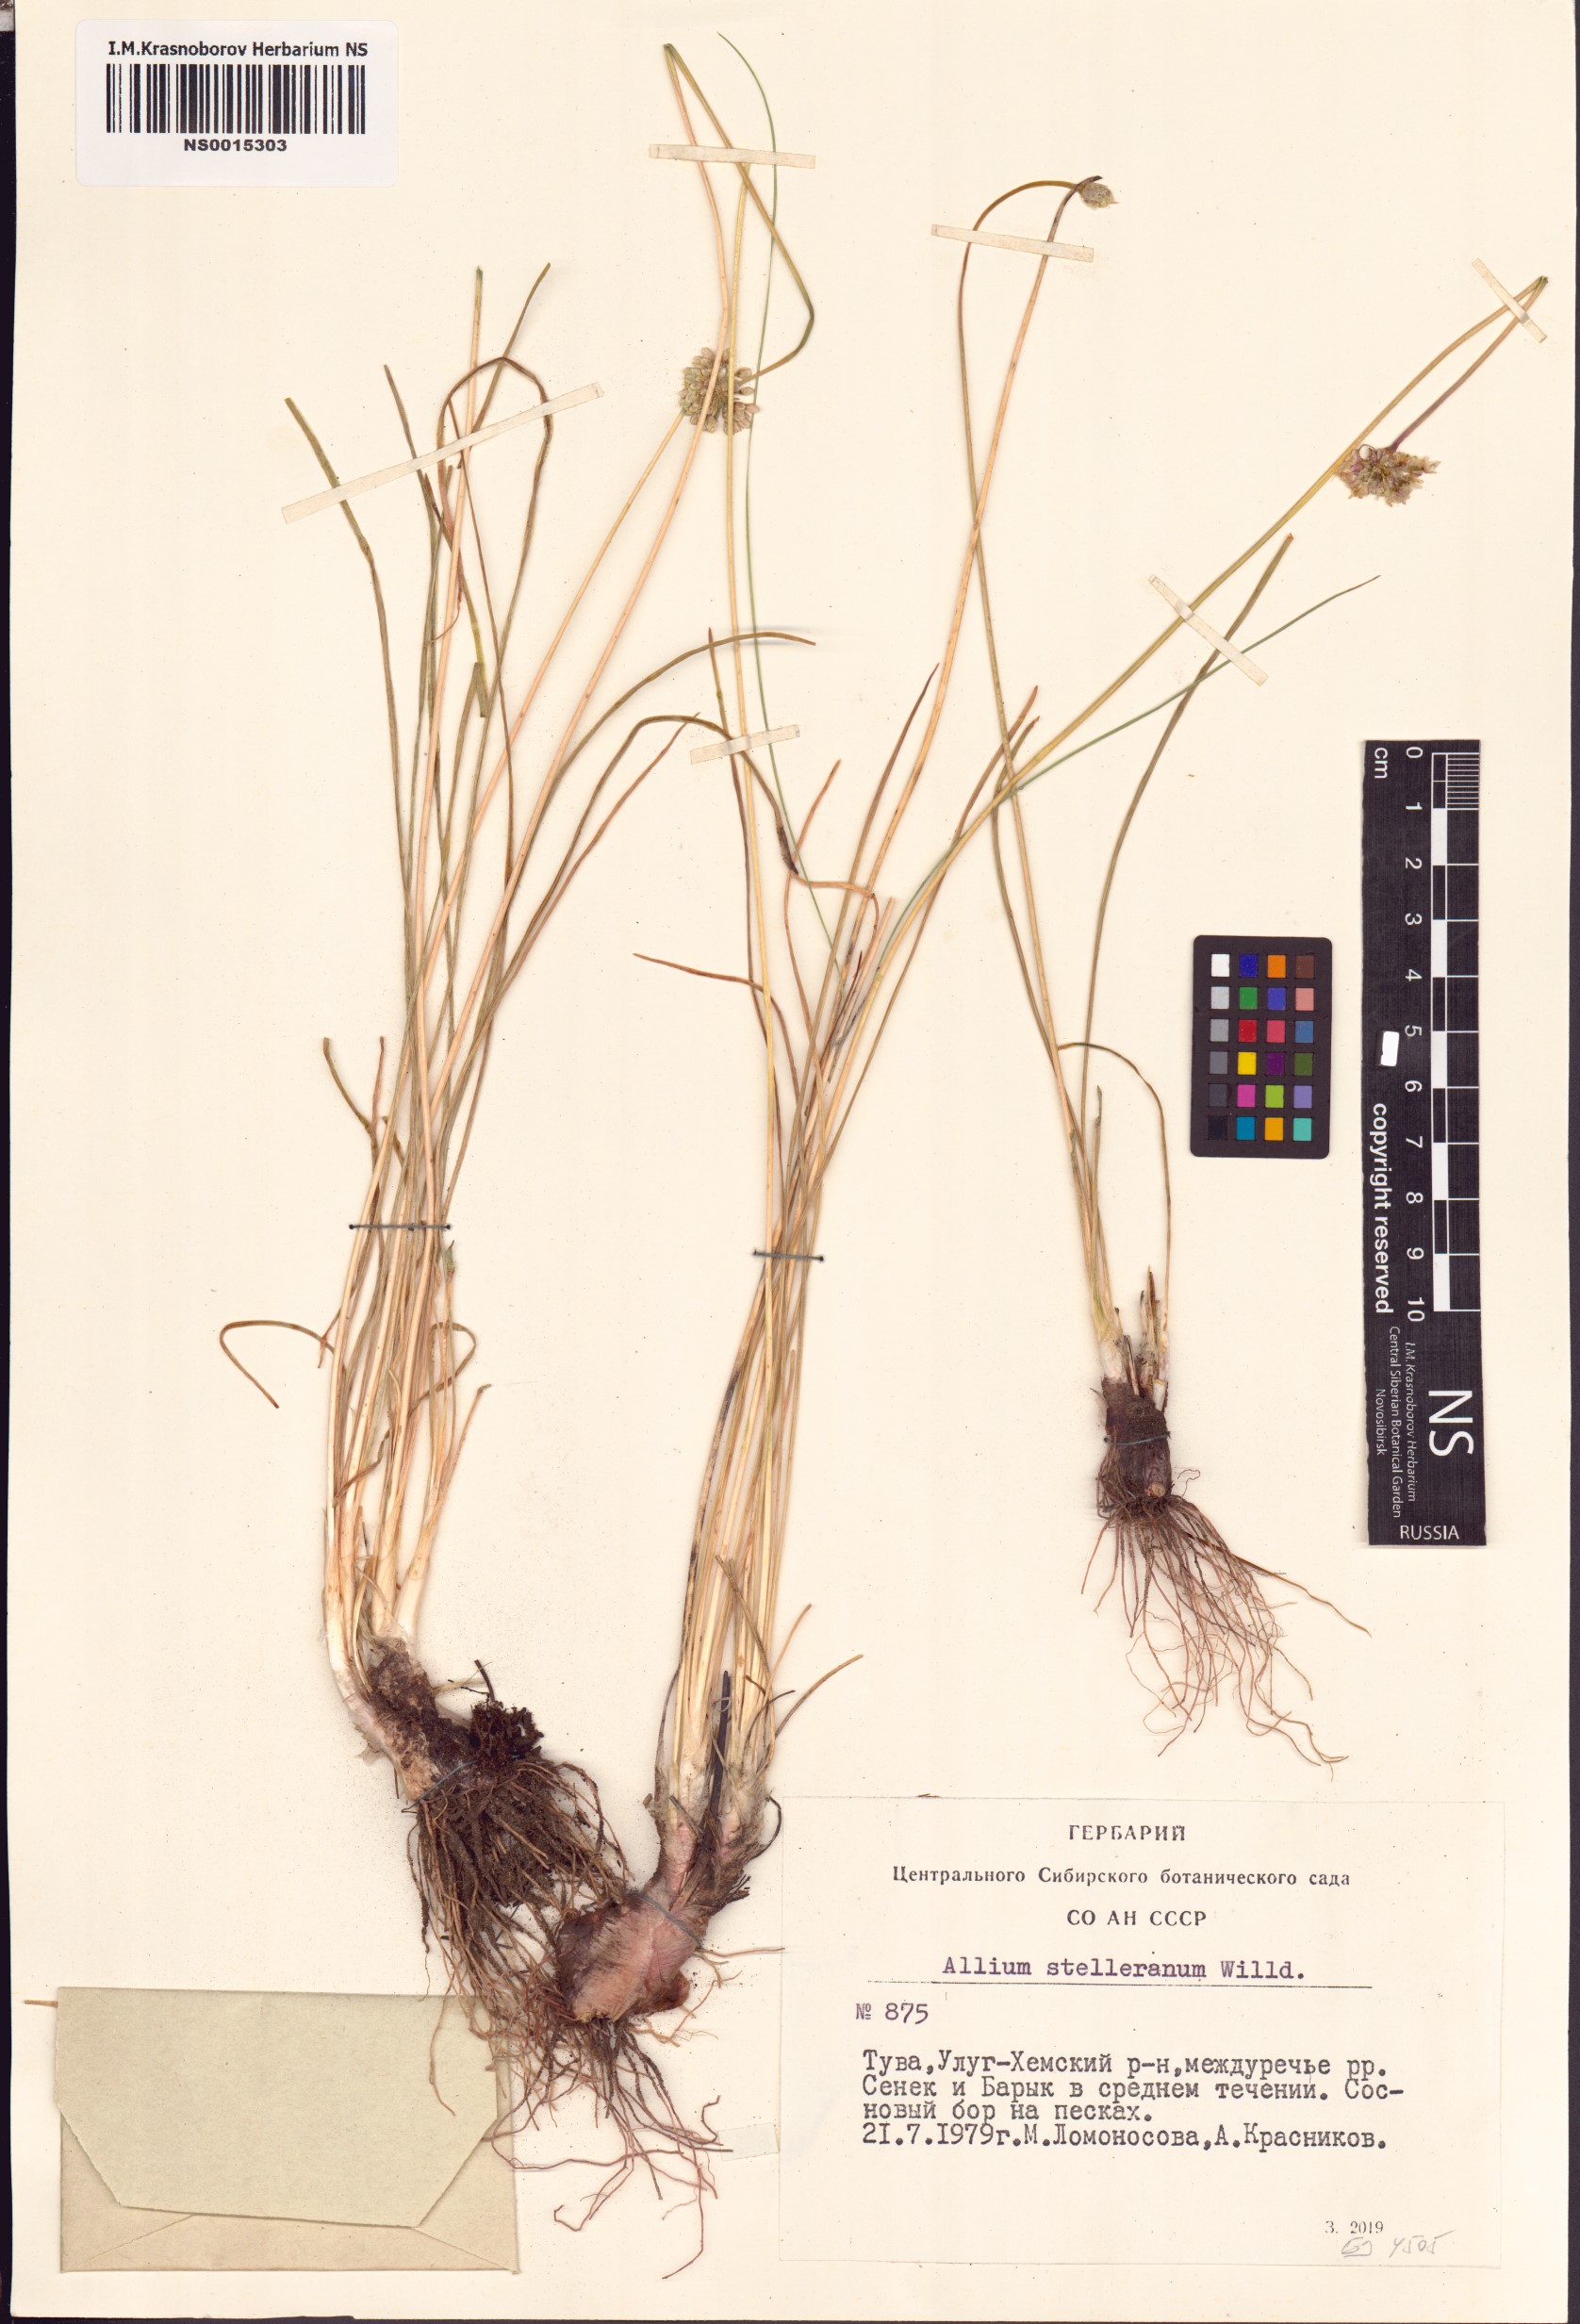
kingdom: Plantae
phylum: Tracheophyta
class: Liliopsida
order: Asparagales
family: Amaryllidaceae
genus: Allium
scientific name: Allium stellerianum
